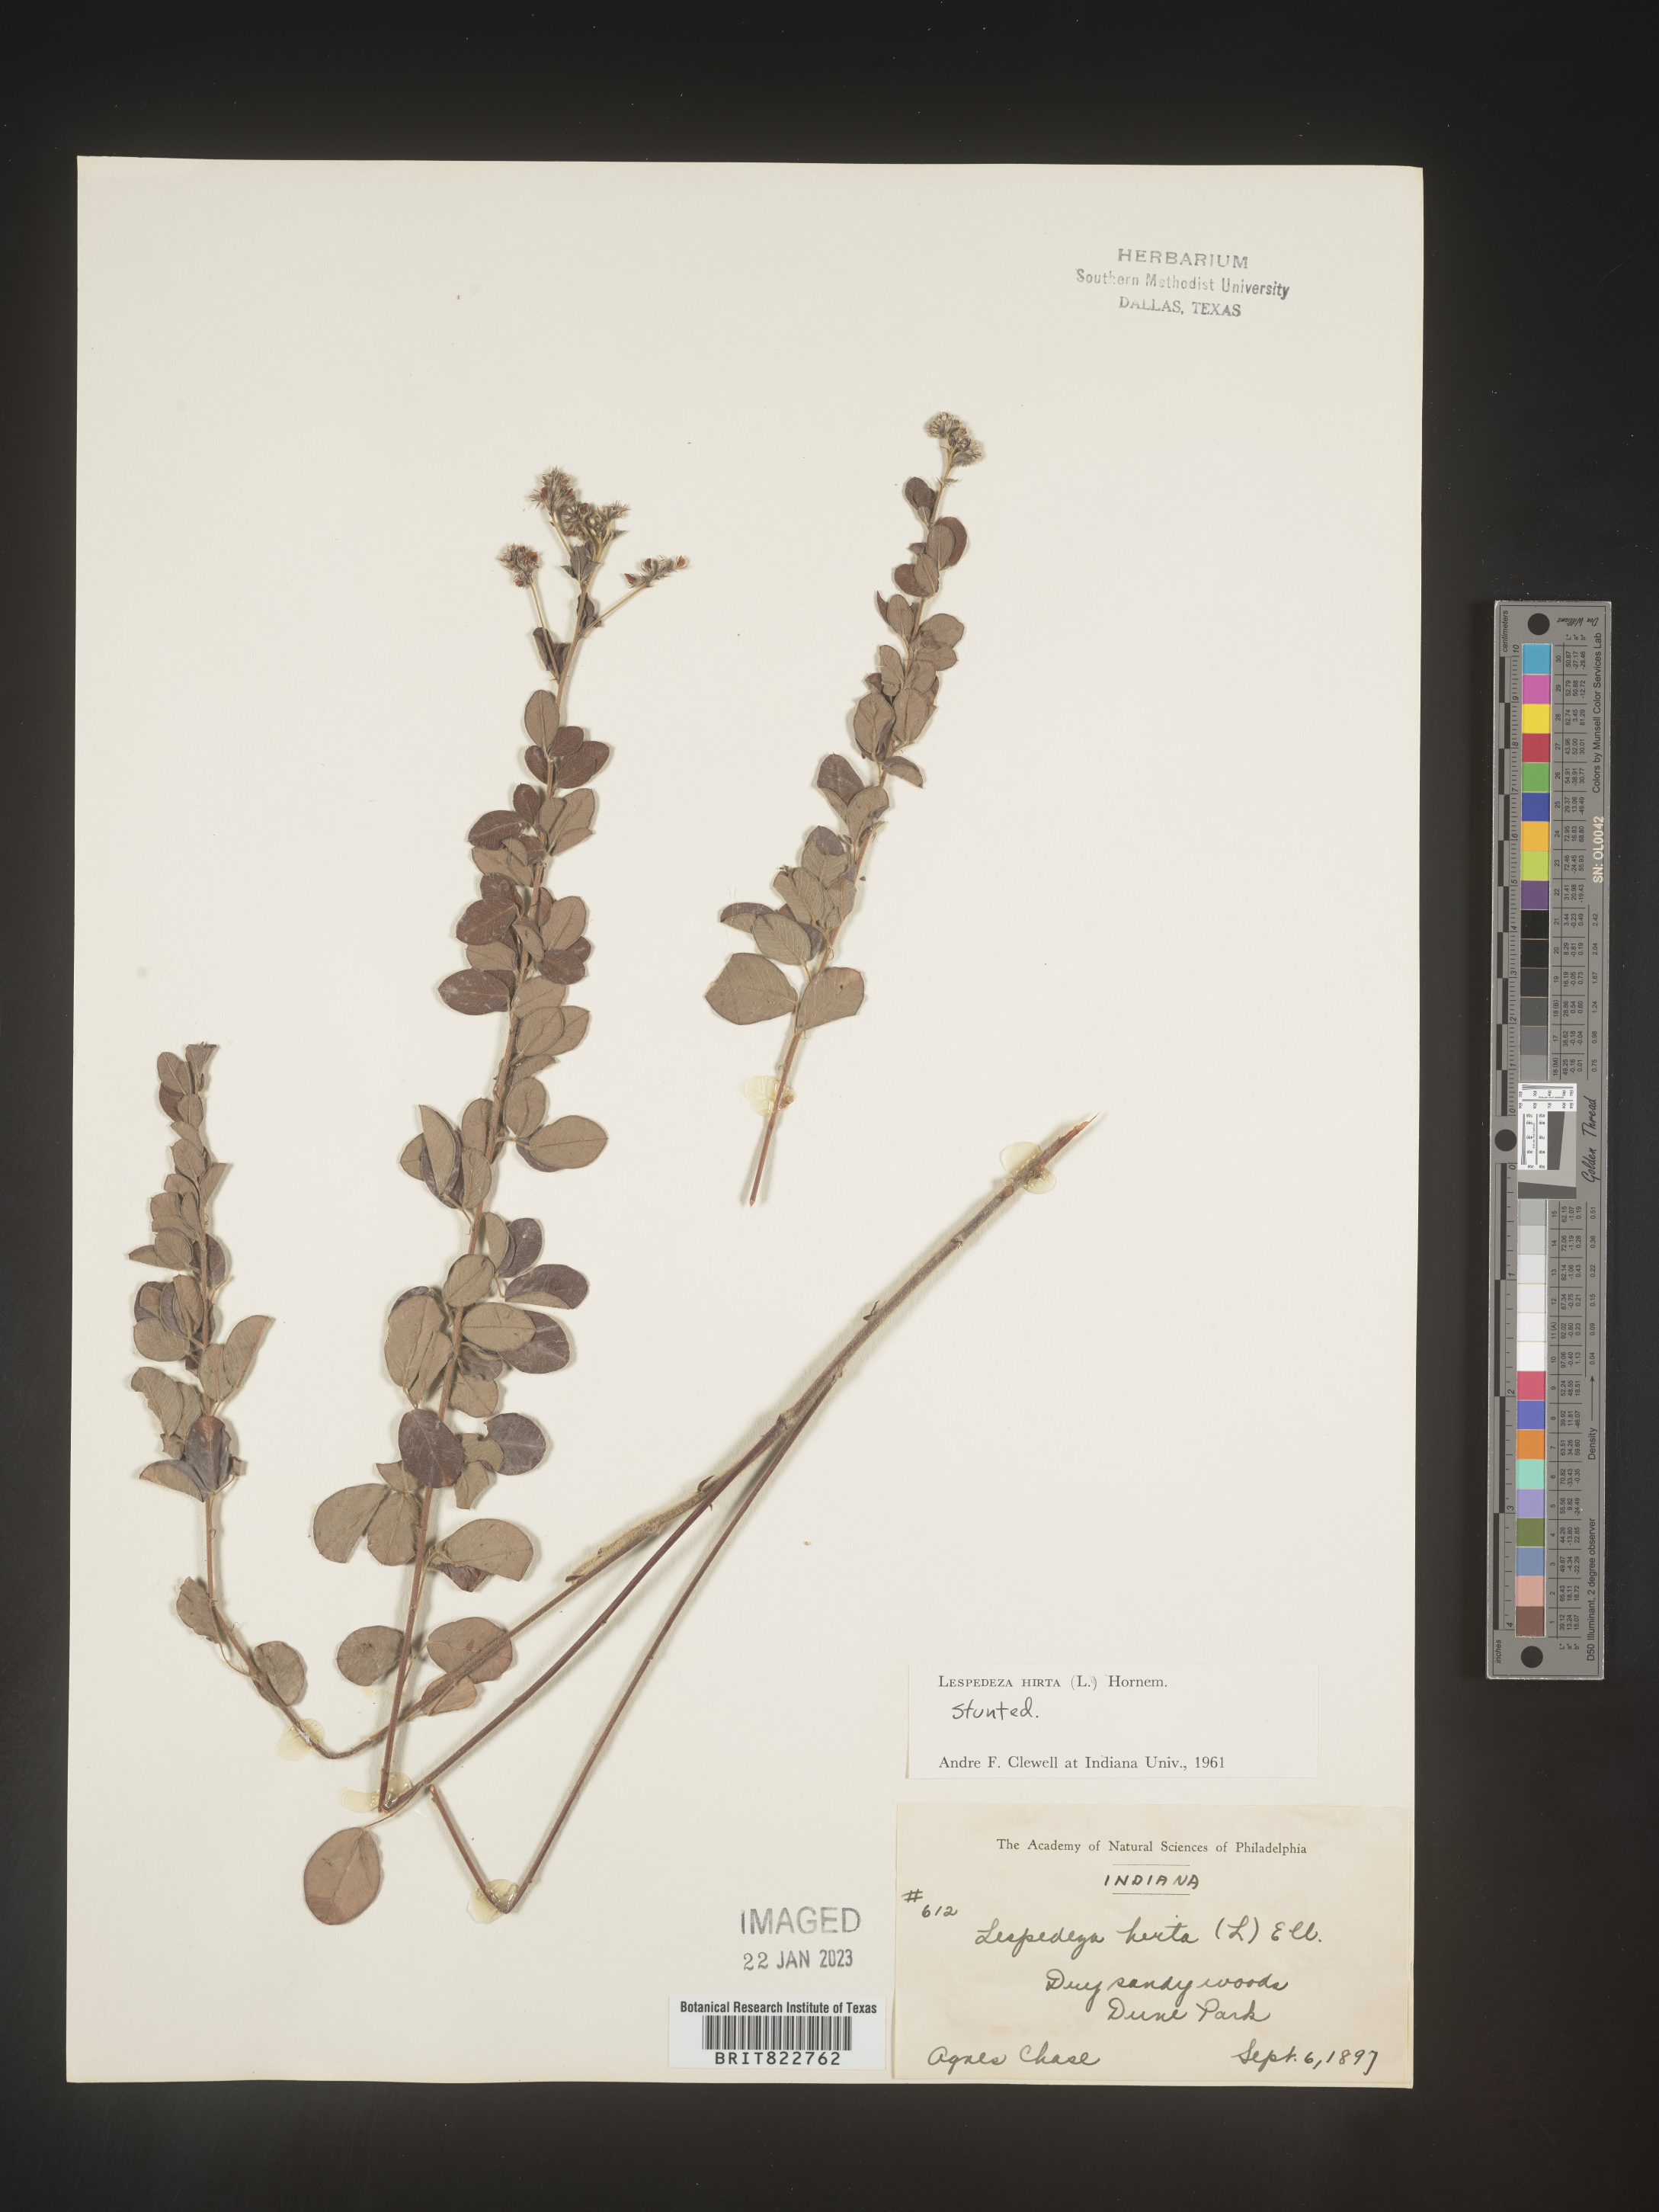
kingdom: Plantae
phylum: Tracheophyta
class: Magnoliopsida
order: Fabales
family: Fabaceae
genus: Lespedeza
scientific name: Lespedeza hirta
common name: Hairy lespedeza
